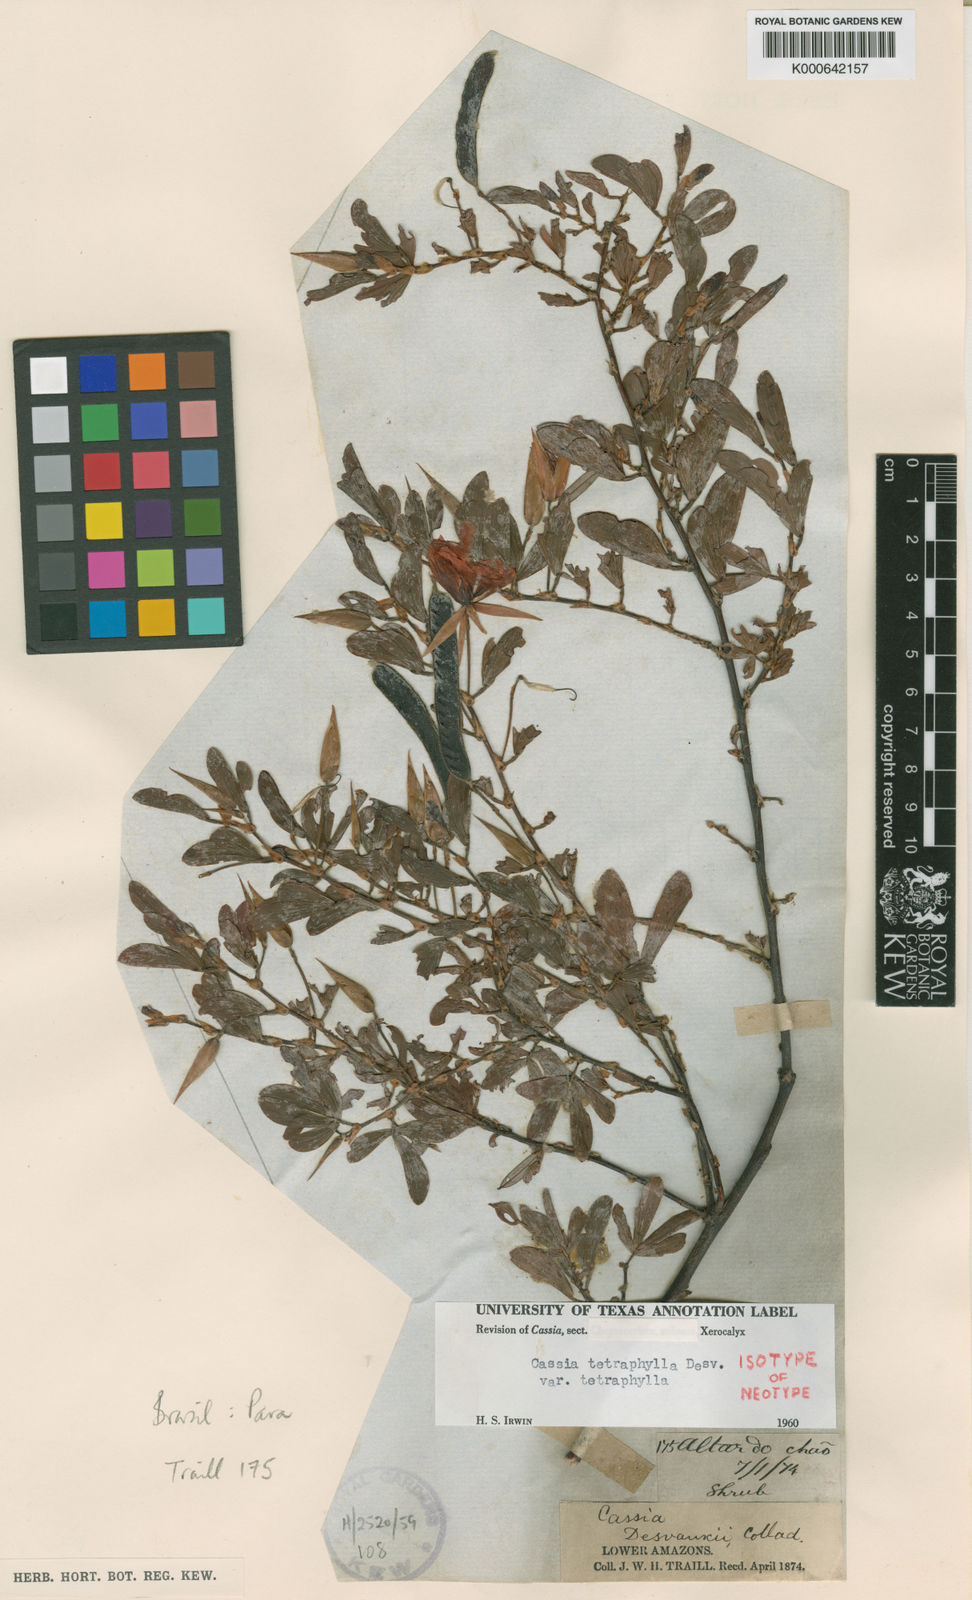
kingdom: Plantae
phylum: Tracheophyta
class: Magnoliopsida
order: Fabales
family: Fabaceae
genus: Chamaecrista
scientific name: Chamaecrista desvauxii
